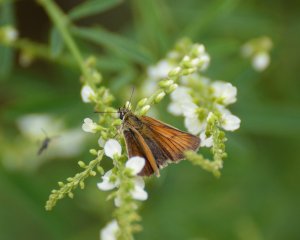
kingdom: Animalia
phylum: Arthropoda
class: Insecta
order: Lepidoptera
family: Hesperiidae
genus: Thymelicus
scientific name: Thymelicus lineola
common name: European Skipper
